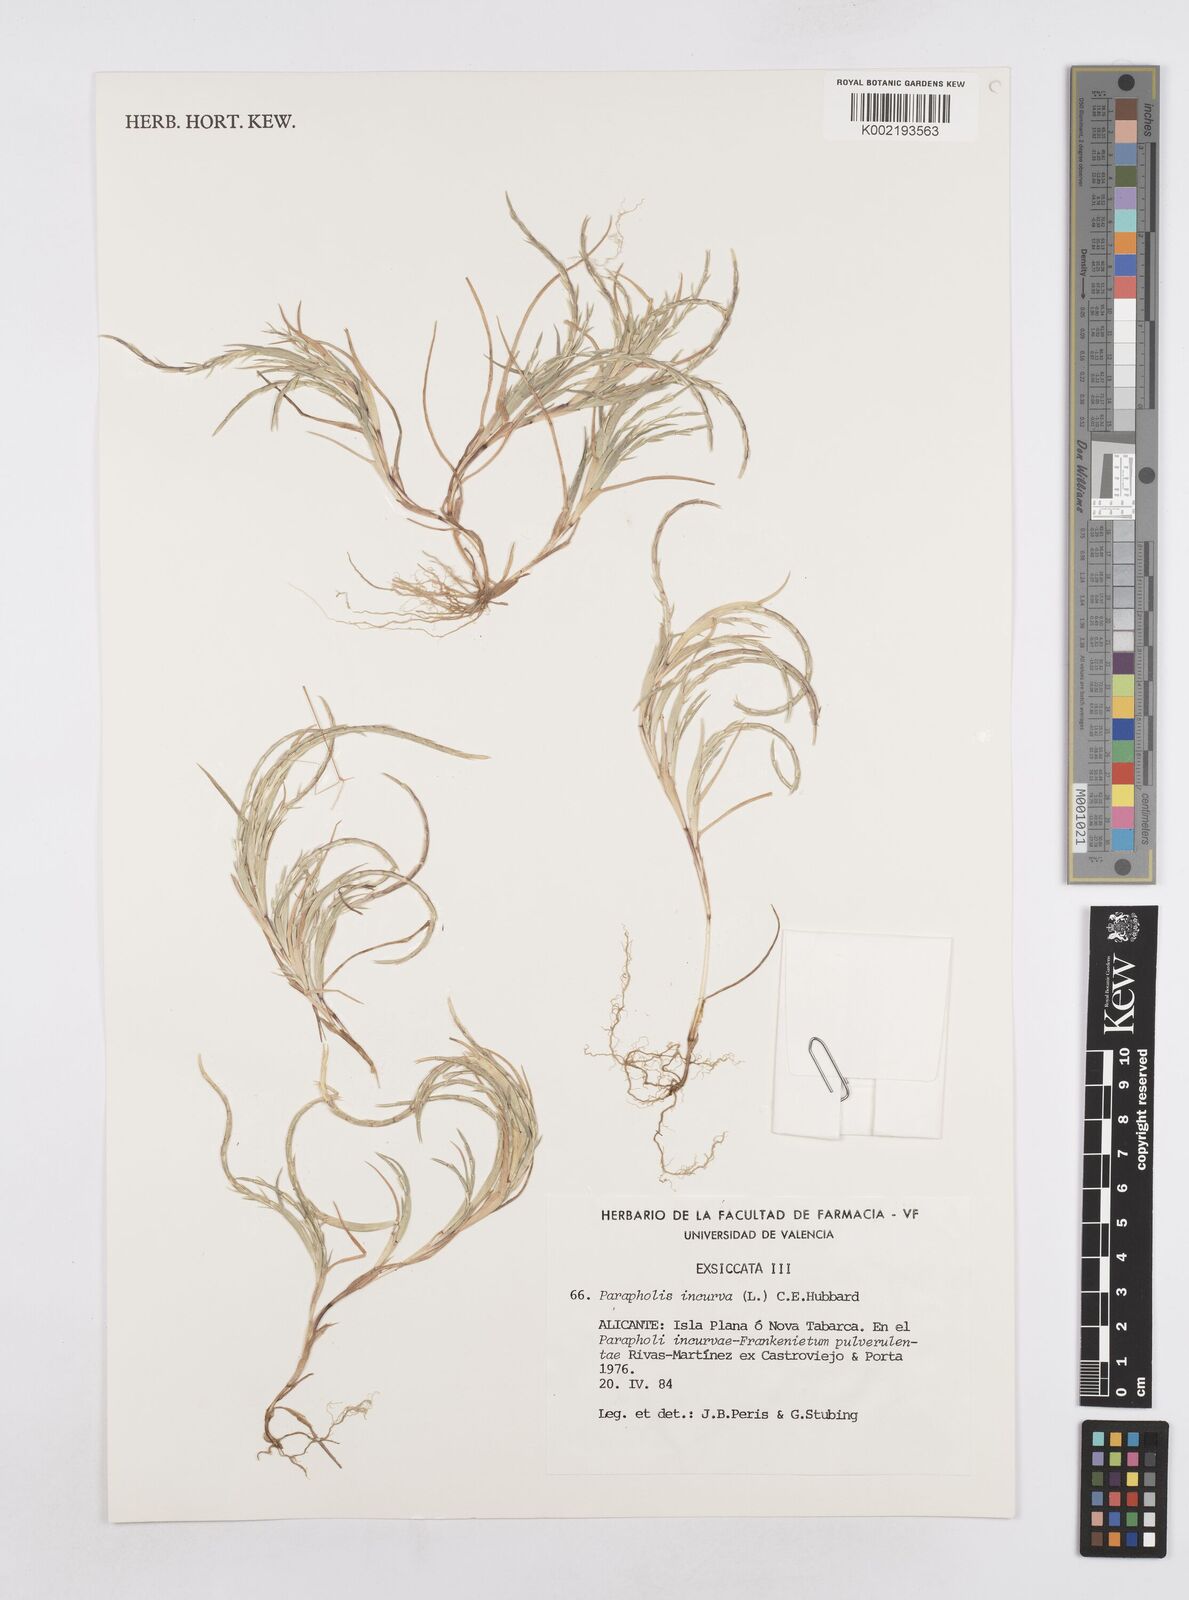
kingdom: Plantae
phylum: Tracheophyta
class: Liliopsida
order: Poales
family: Poaceae
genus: Parapholis
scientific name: Parapholis incurva
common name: Curved sicklegrass
